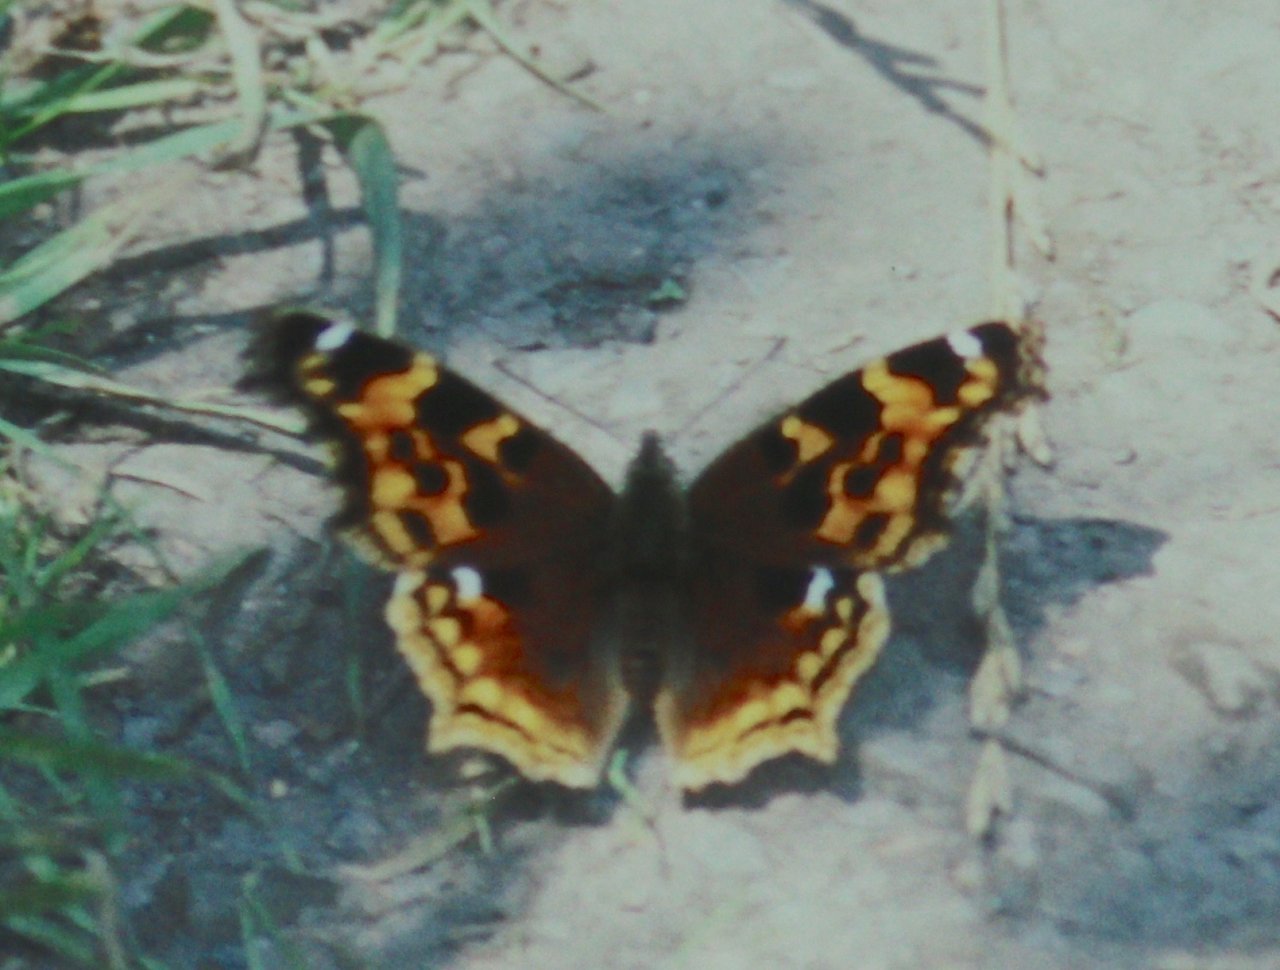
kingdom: Animalia
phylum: Arthropoda
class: Insecta
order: Lepidoptera
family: Nymphalidae
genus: Polygonia
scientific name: Polygonia vaualbum
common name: Compton Tortoiseshell
